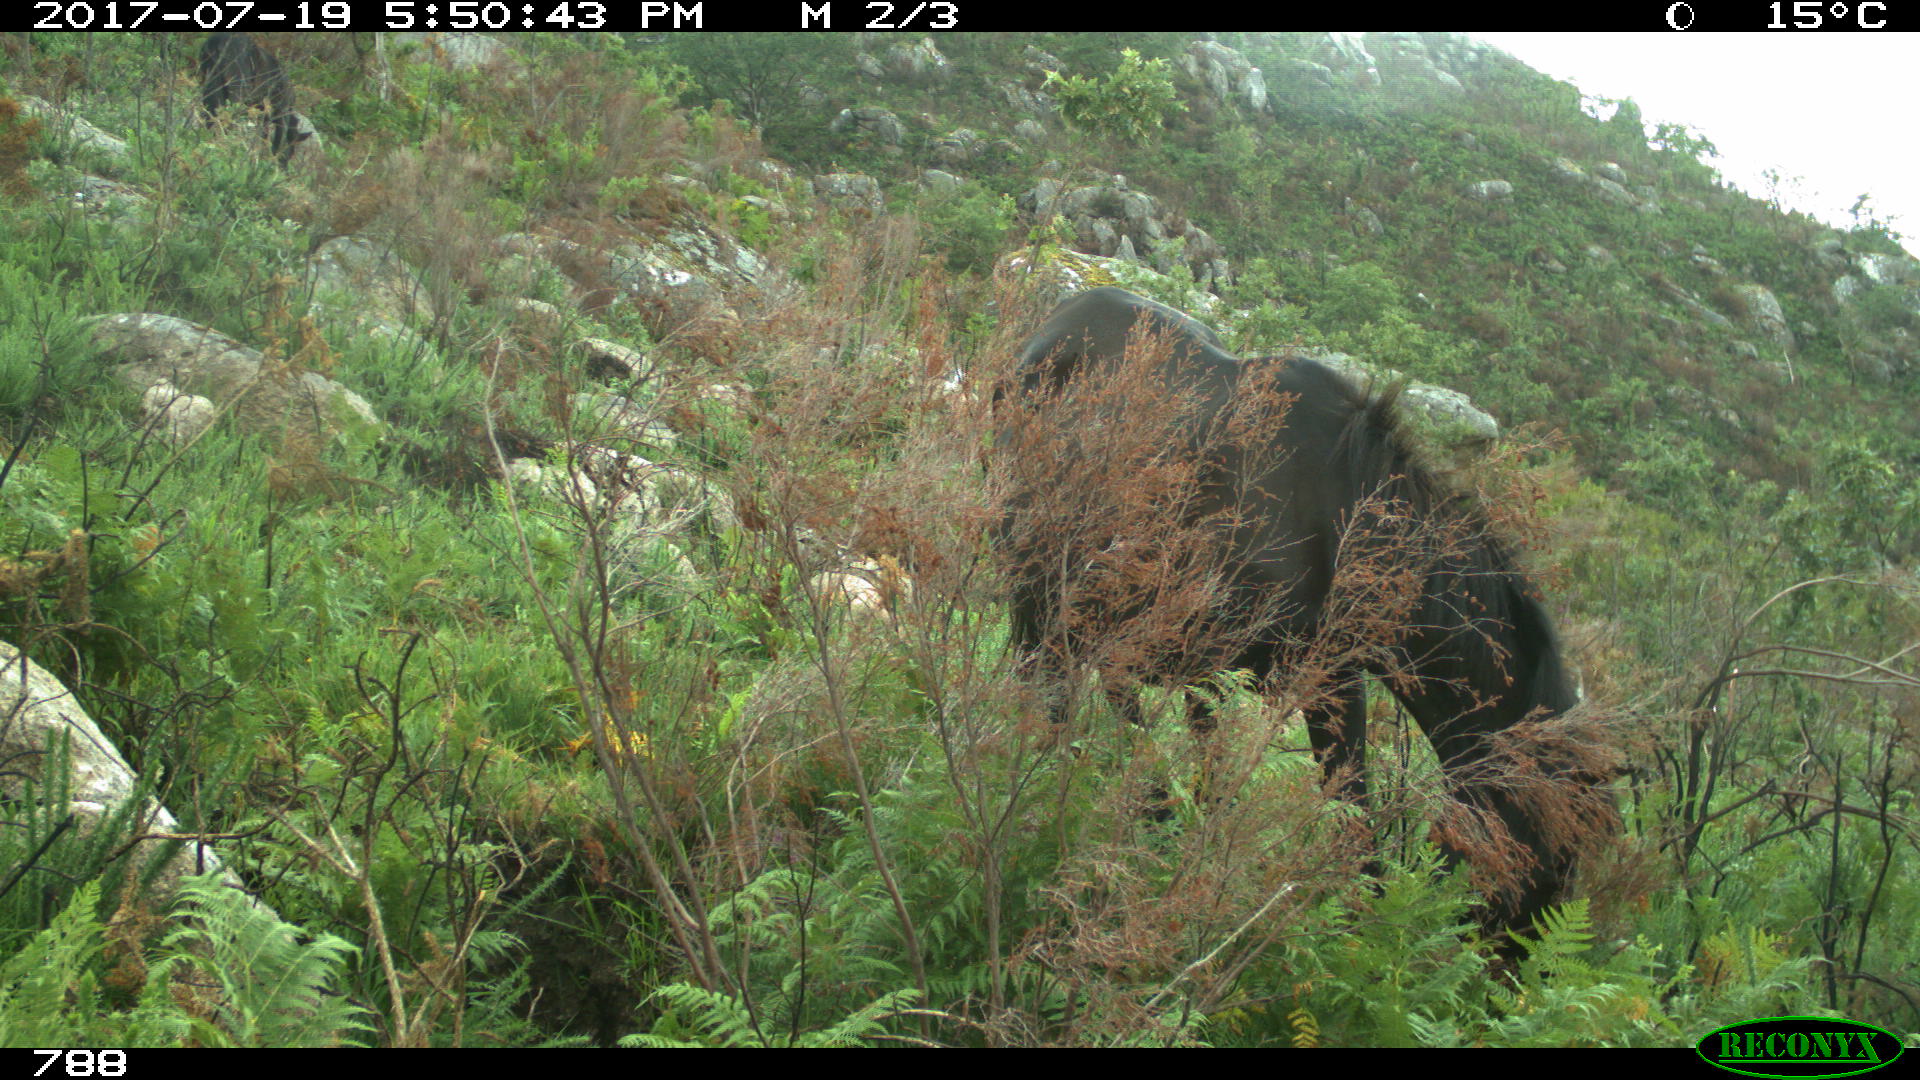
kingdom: Animalia
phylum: Chordata
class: Mammalia
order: Perissodactyla
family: Equidae
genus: Equus
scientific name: Equus caballus
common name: Horse
